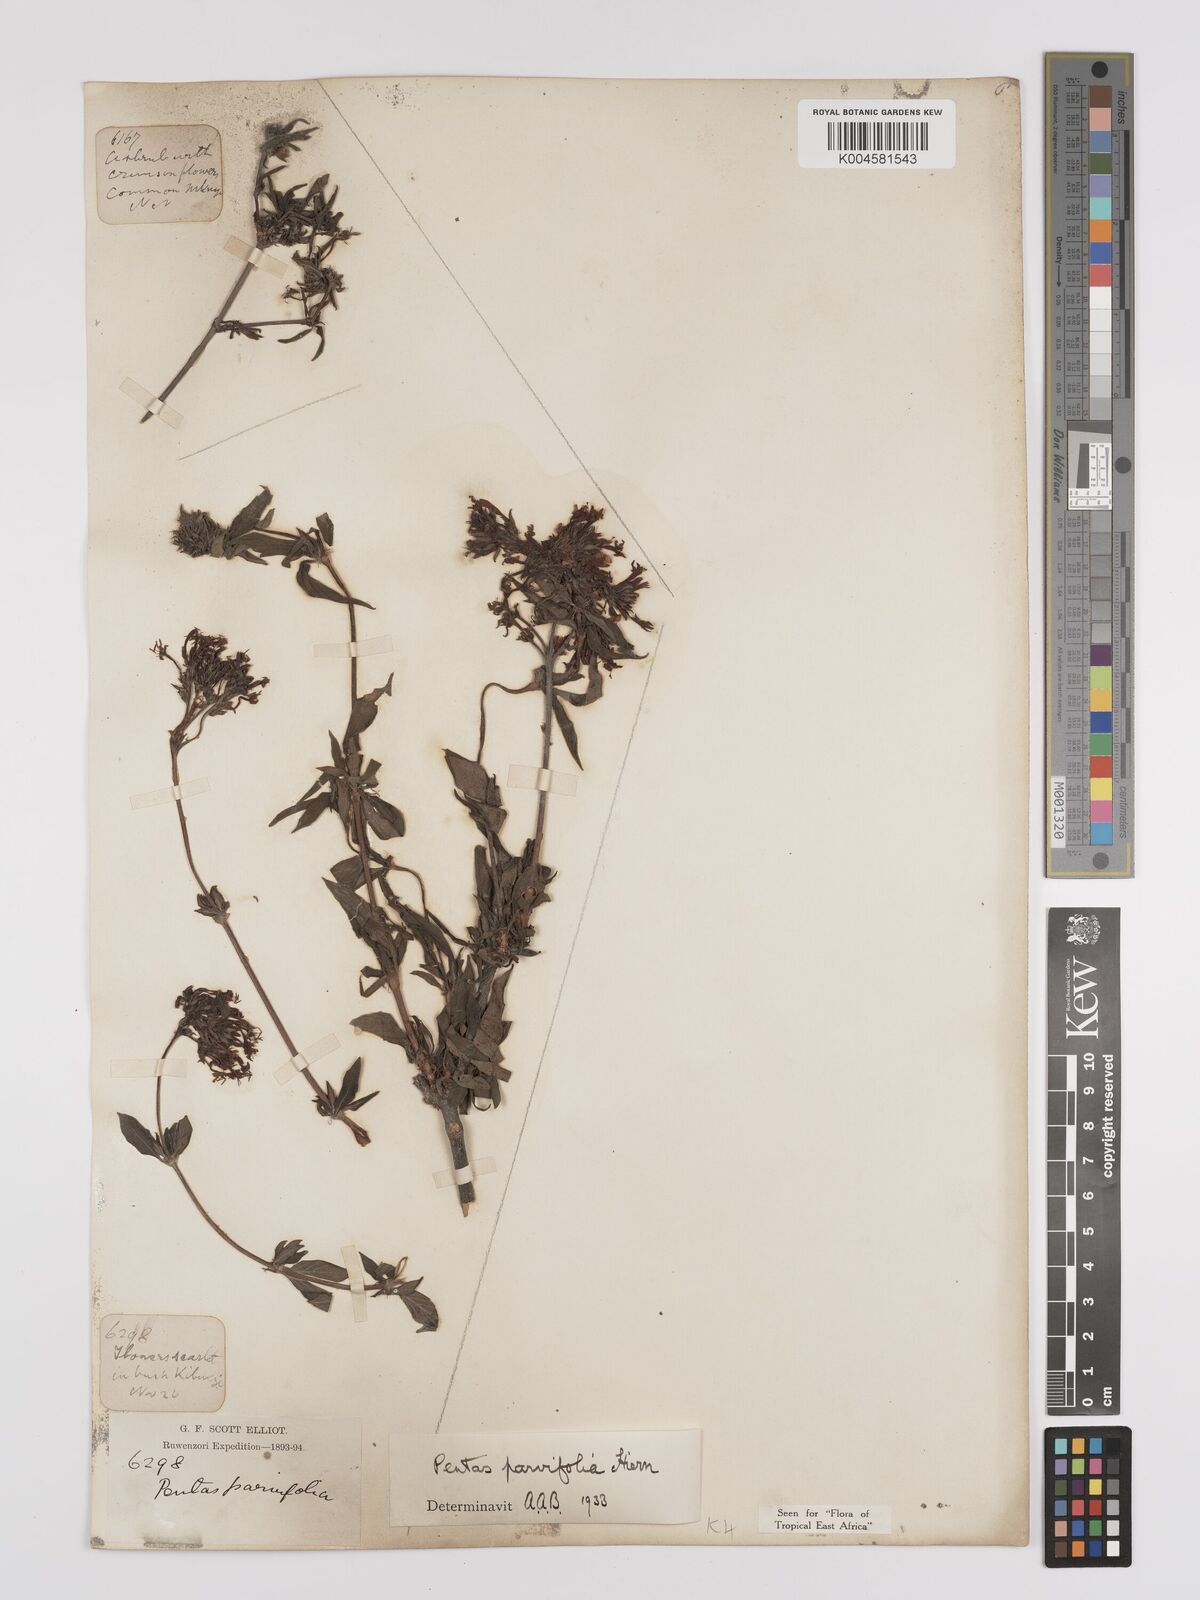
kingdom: Plantae
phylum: Tracheophyta
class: Magnoliopsida
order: Gentianales
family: Rubiaceae
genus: Rhodopentas
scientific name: Rhodopentas parvifolia
